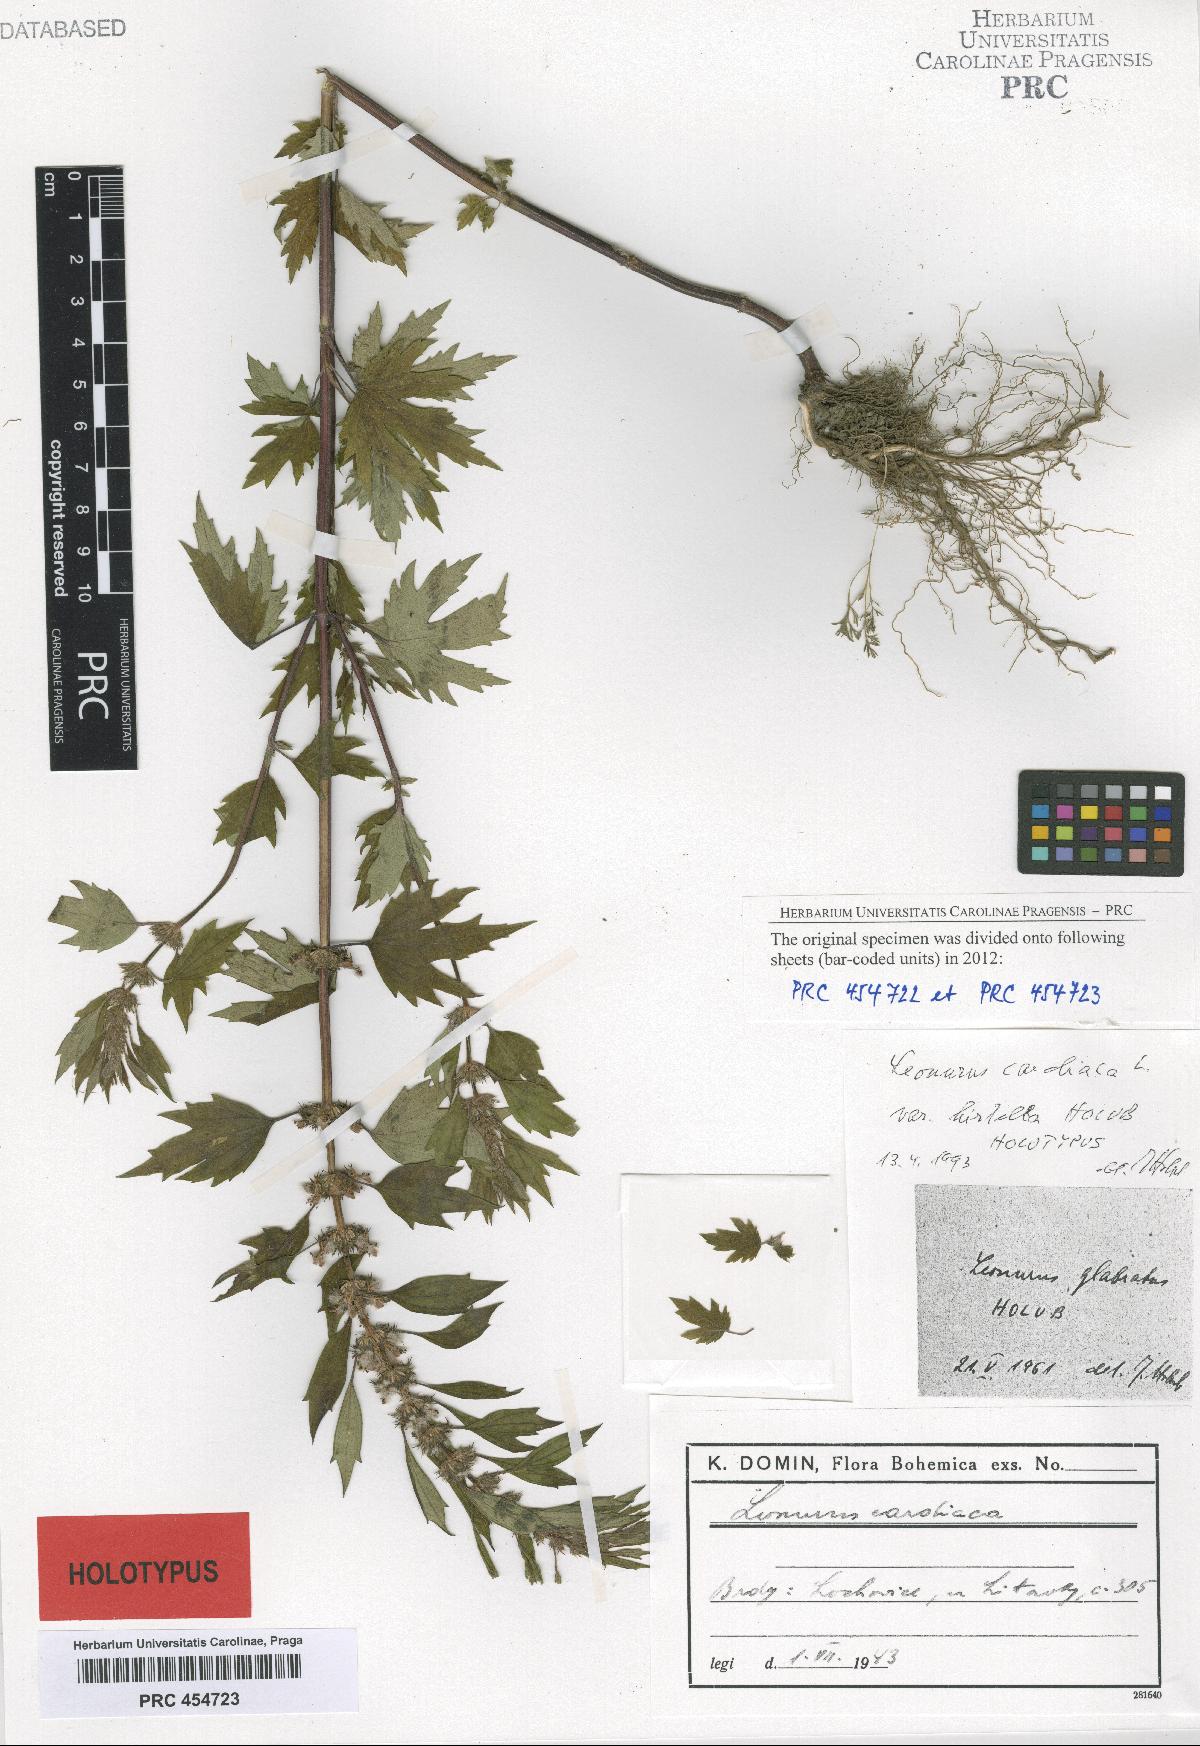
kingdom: Plantae
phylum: Tracheophyta
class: Magnoliopsida
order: Lamiales
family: Lamiaceae
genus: Leonurus
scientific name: Leonurus cardiaca
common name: Motherwort
